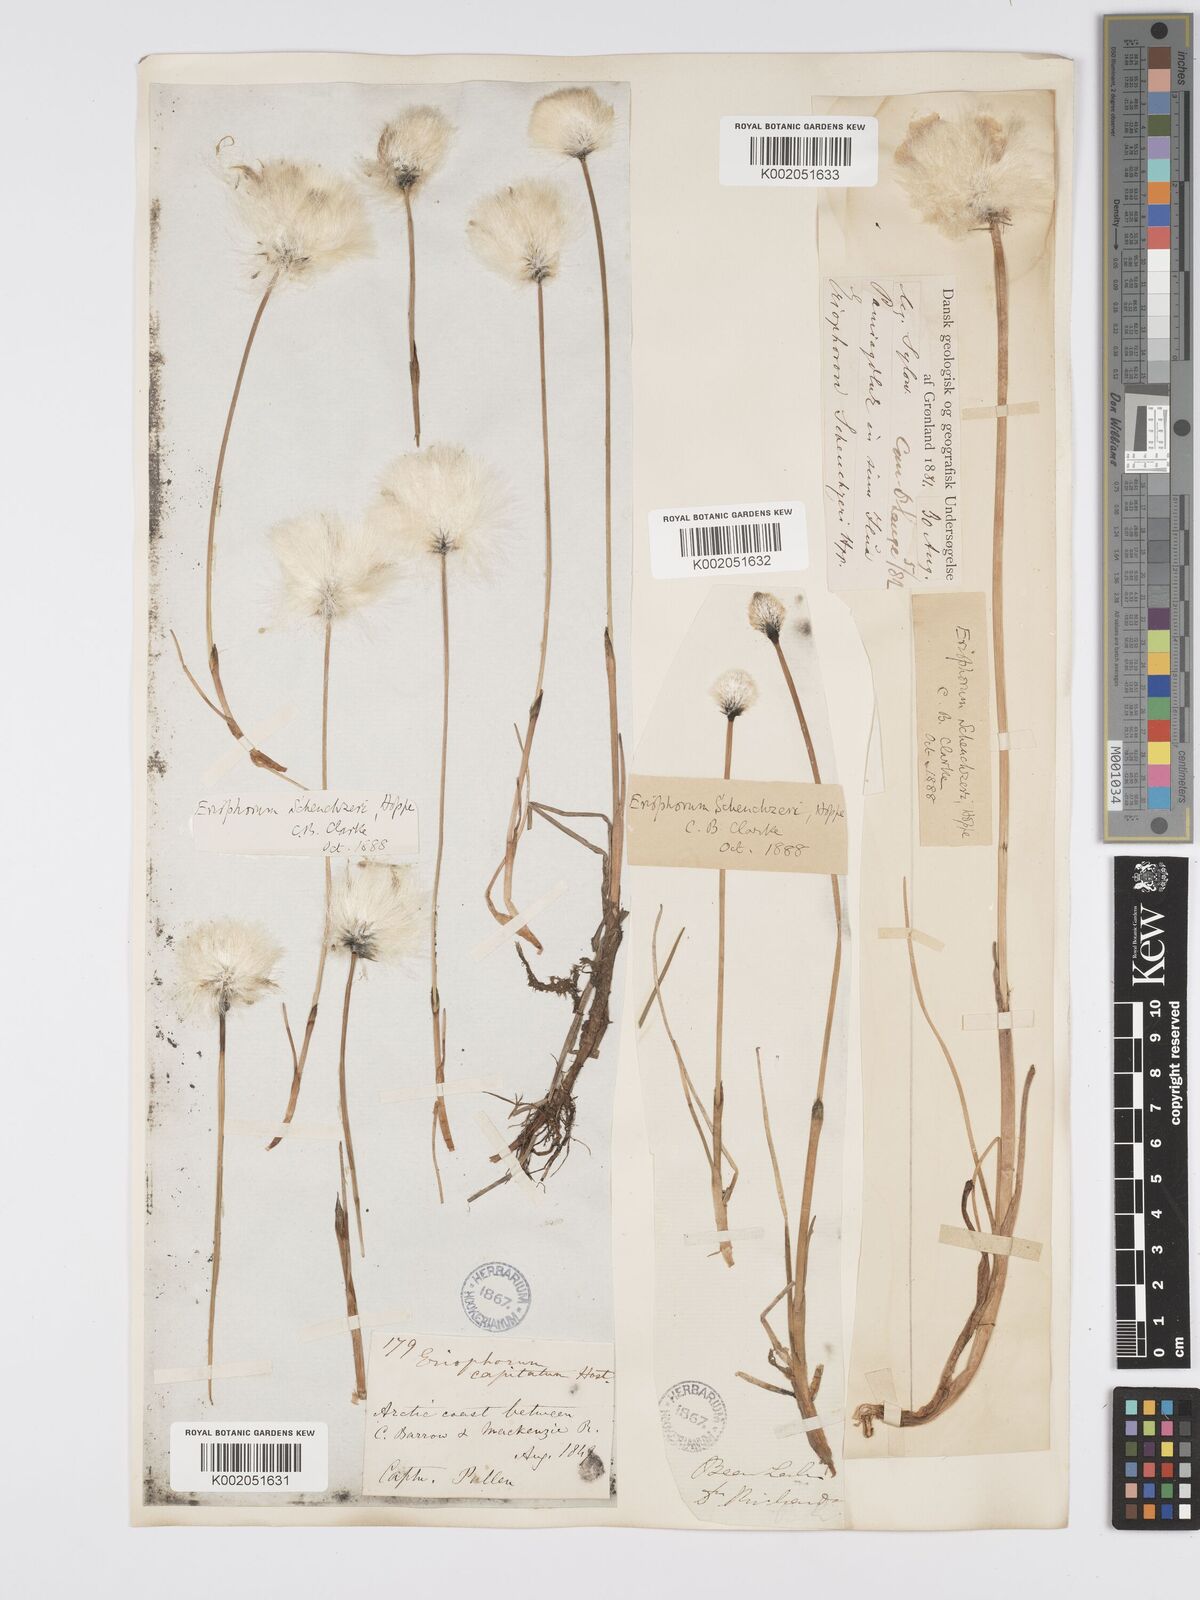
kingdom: Plantae
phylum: Tracheophyta
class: Liliopsida
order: Poales
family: Cyperaceae
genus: Eriophorum
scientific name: Eriophorum scheuchzeri
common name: Scheuchzer's cottongrass
